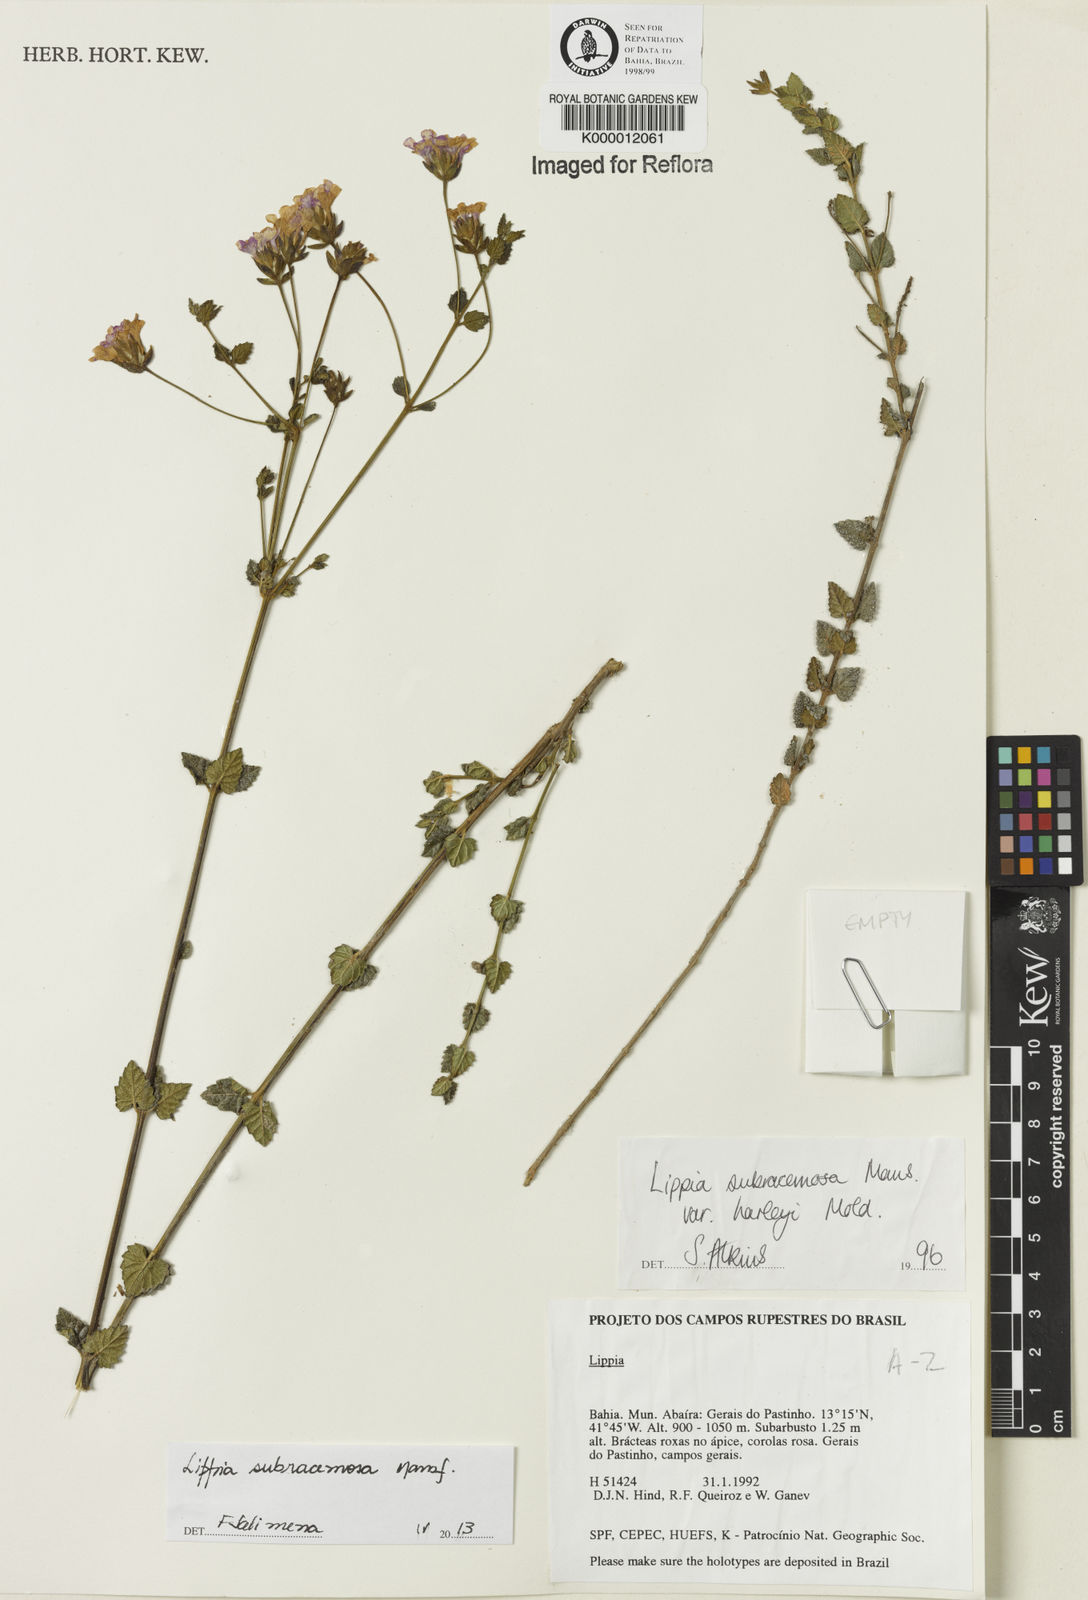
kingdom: Plantae
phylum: Tracheophyta
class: Magnoliopsida
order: Lamiales
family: Verbenaceae
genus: Lippia
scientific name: Lippia deltata
